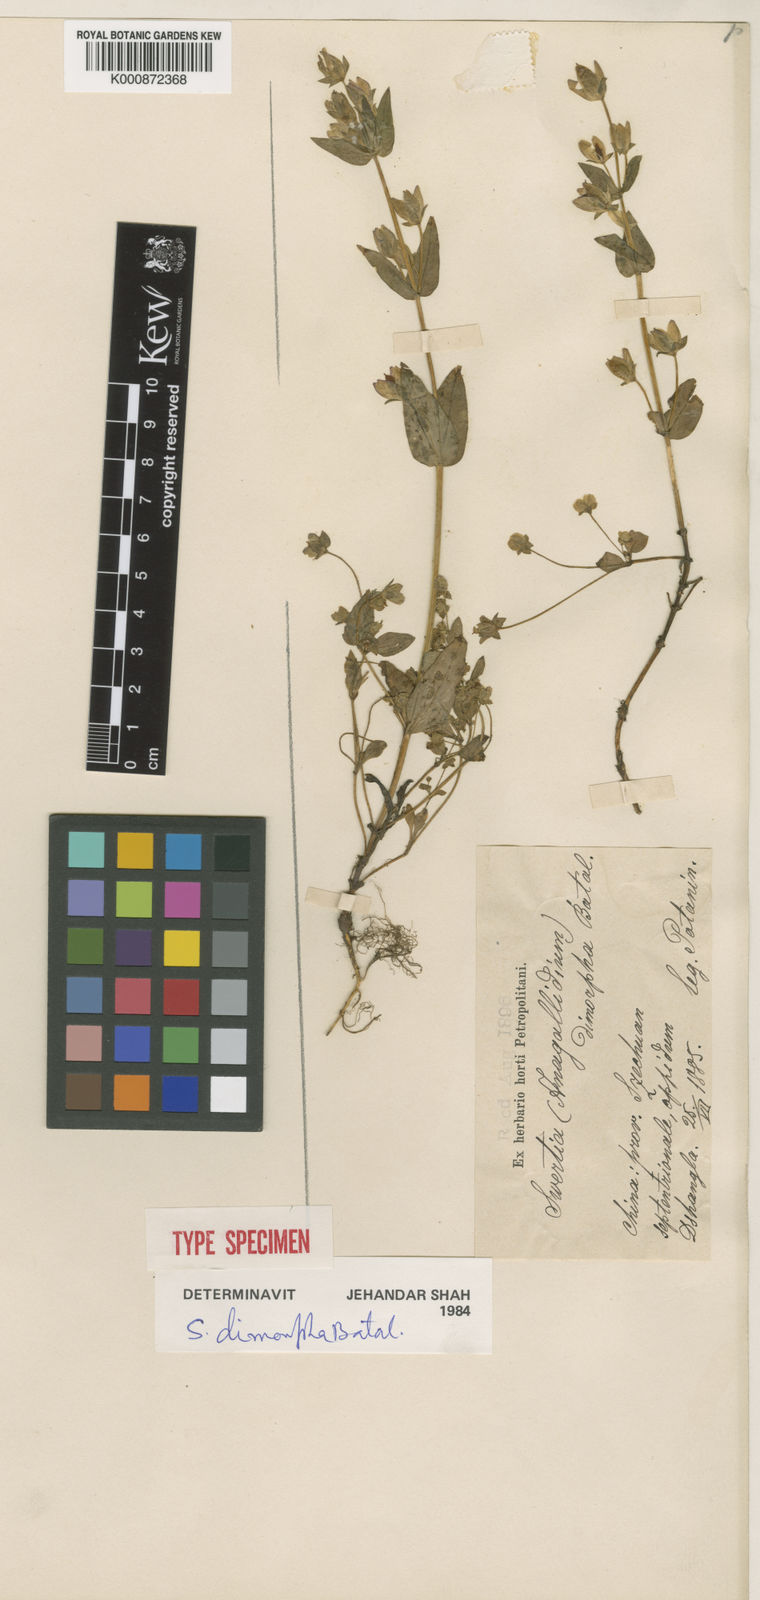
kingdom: Plantae
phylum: Tracheophyta
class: Magnoliopsida
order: Gentianales
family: Gentianaceae
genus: Swertia
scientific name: Swertia tetraptera
